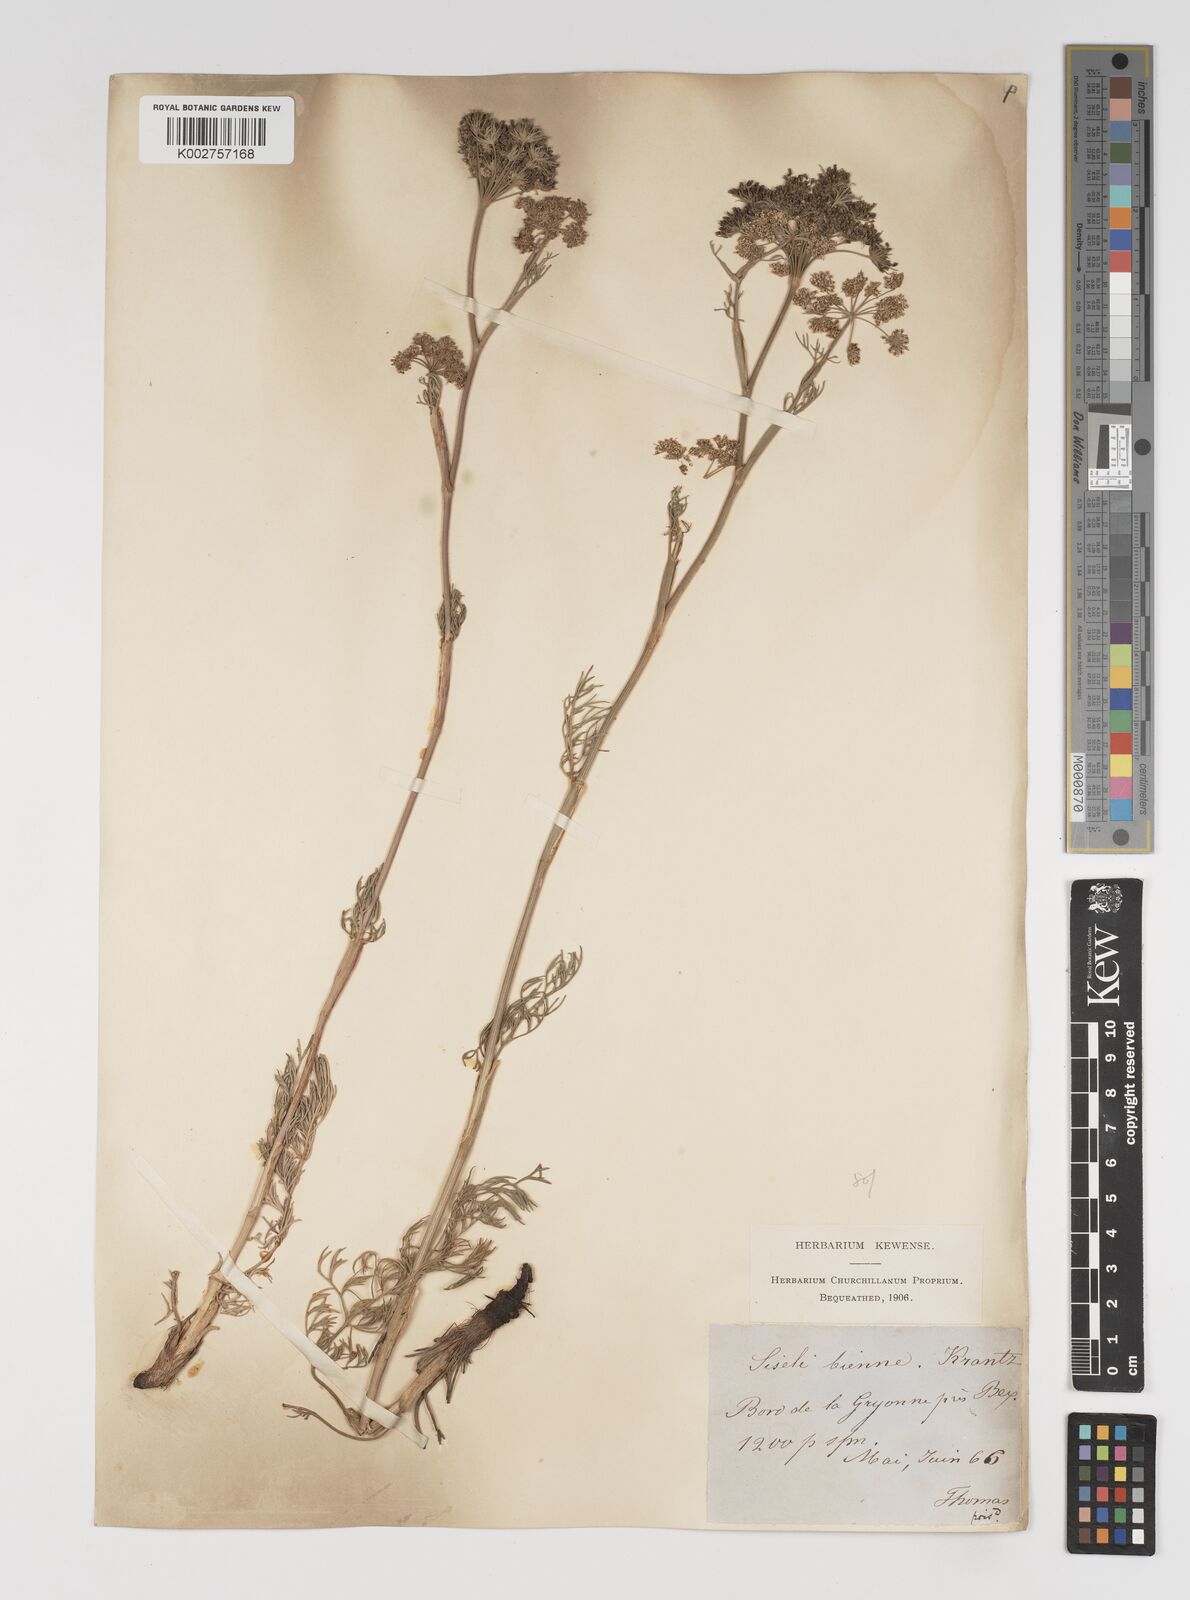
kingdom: Plantae
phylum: Tracheophyta
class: Magnoliopsida
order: Apiales
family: Apiaceae
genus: Seseli
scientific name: Seseli annuum
